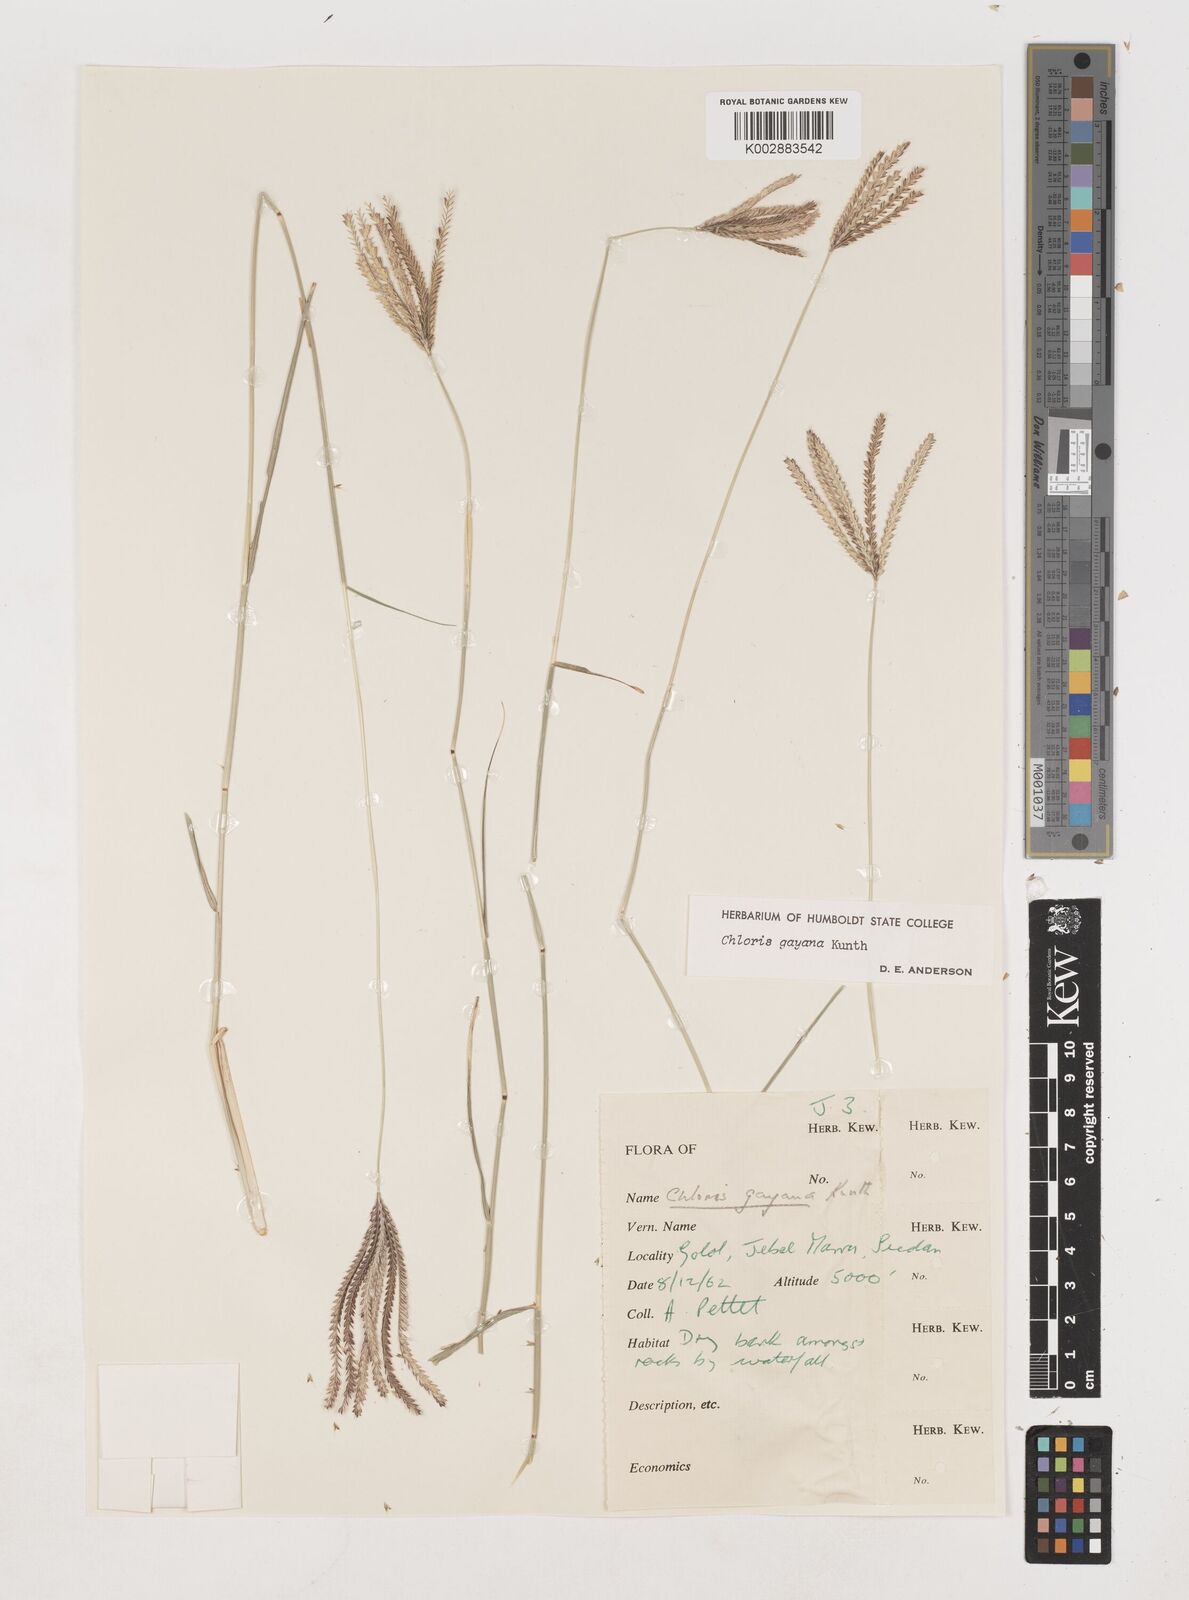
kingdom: Plantae
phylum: Tracheophyta
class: Liliopsida
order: Poales
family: Poaceae
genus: Chloris
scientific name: Chloris gayana
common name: Rhodes grass
